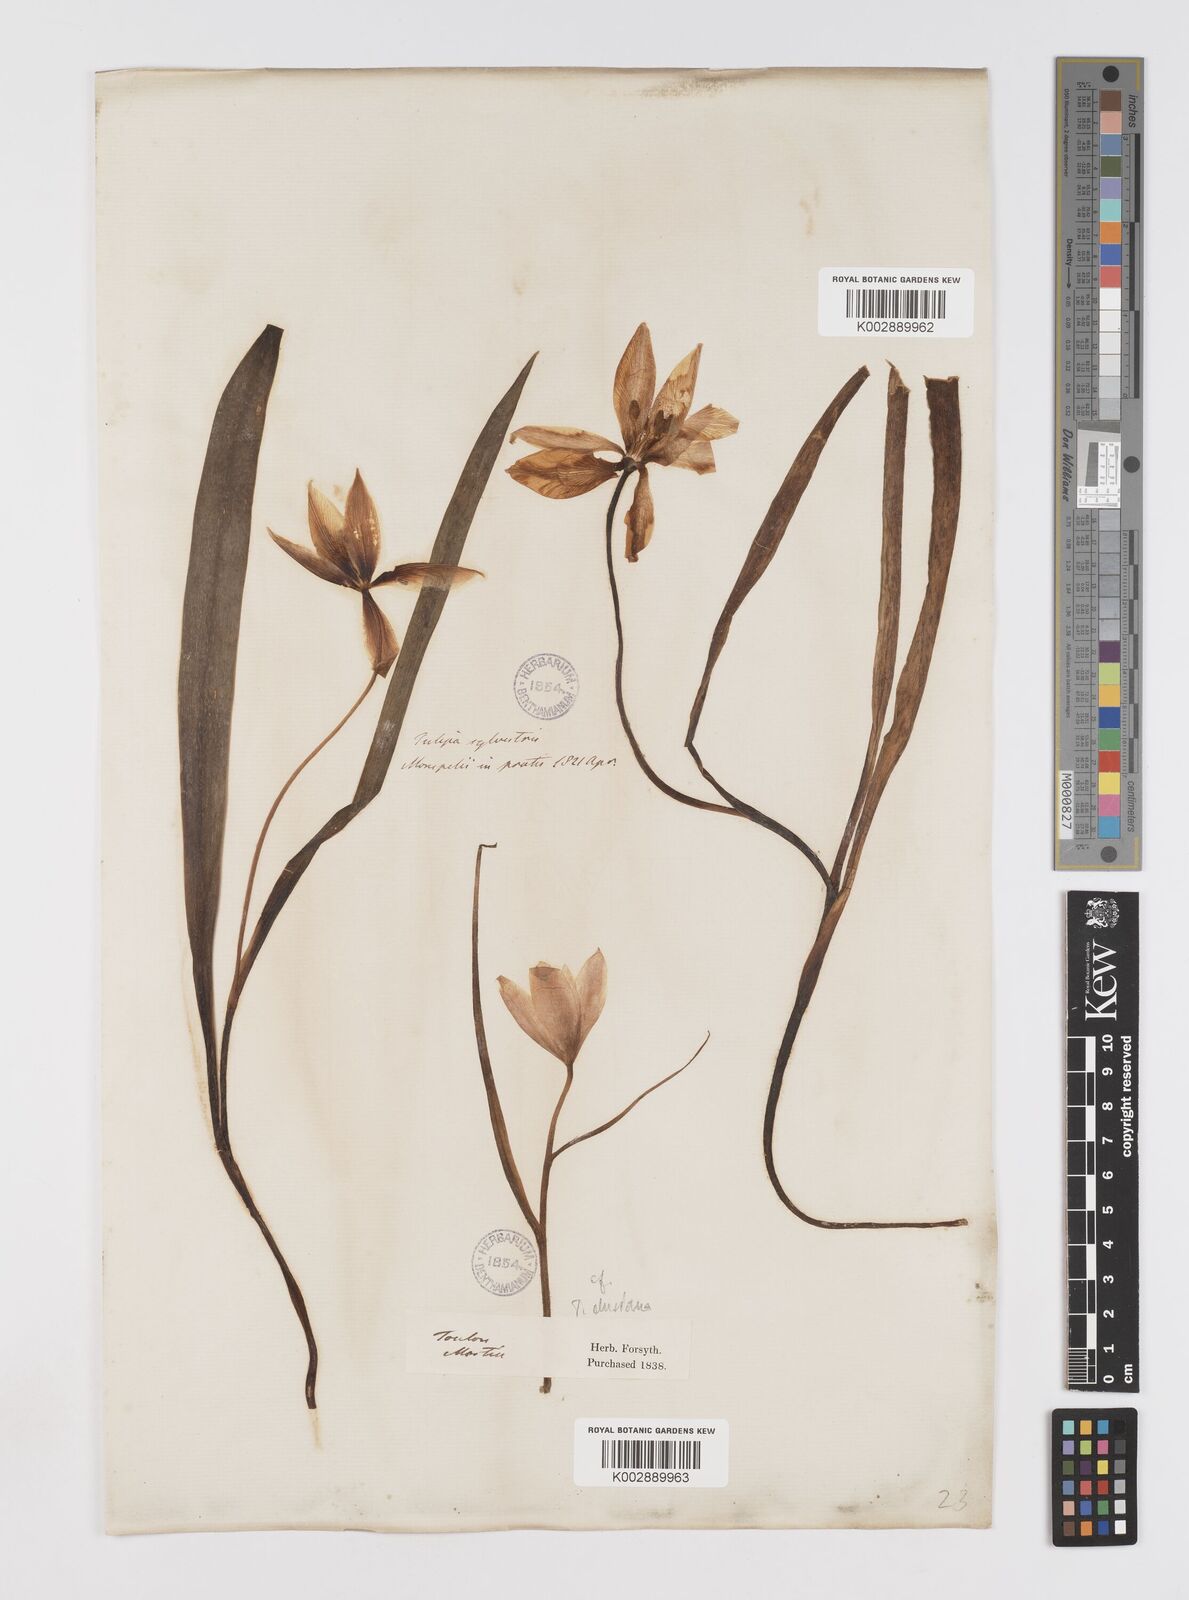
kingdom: Plantae
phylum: Tracheophyta
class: Liliopsida
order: Liliales
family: Liliaceae
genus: Tulipa
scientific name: Tulipa sylvestris
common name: Wild tulip
